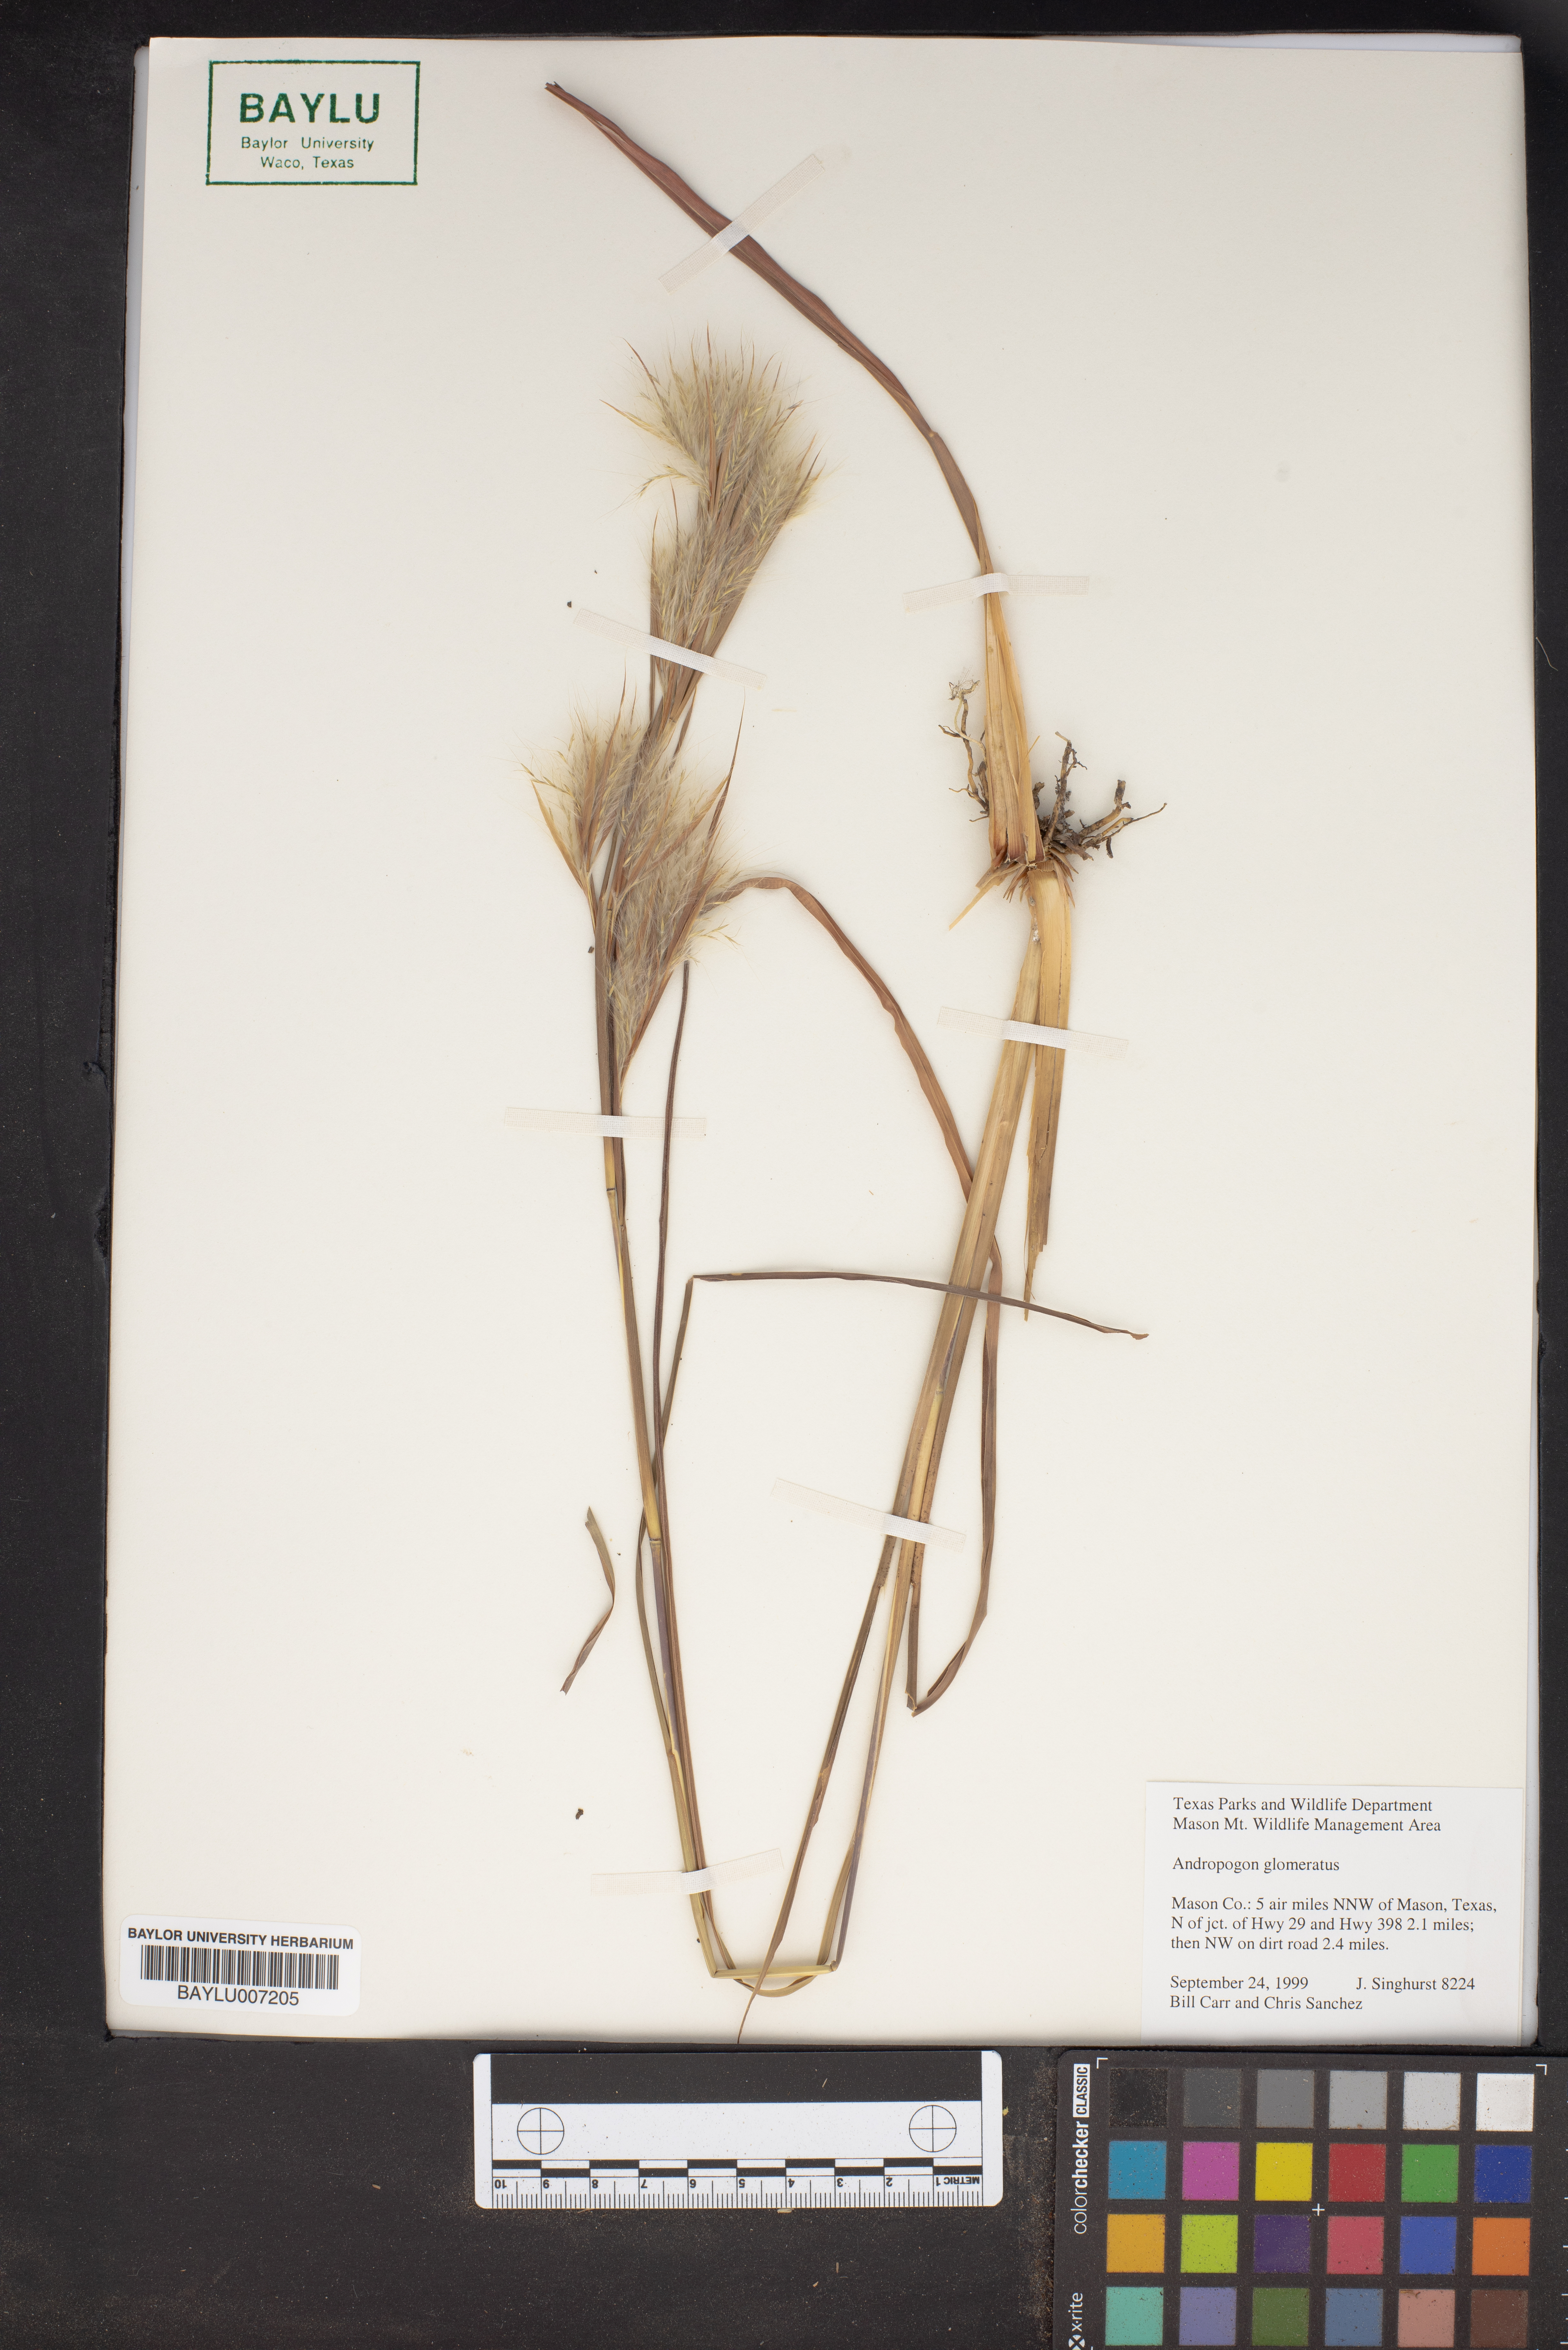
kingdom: Plantae
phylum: Tracheophyta
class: Liliopsida
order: Poales
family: Poaceae
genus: Andropogon
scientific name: Andropogon glomeratus
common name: Bushy beard grass
